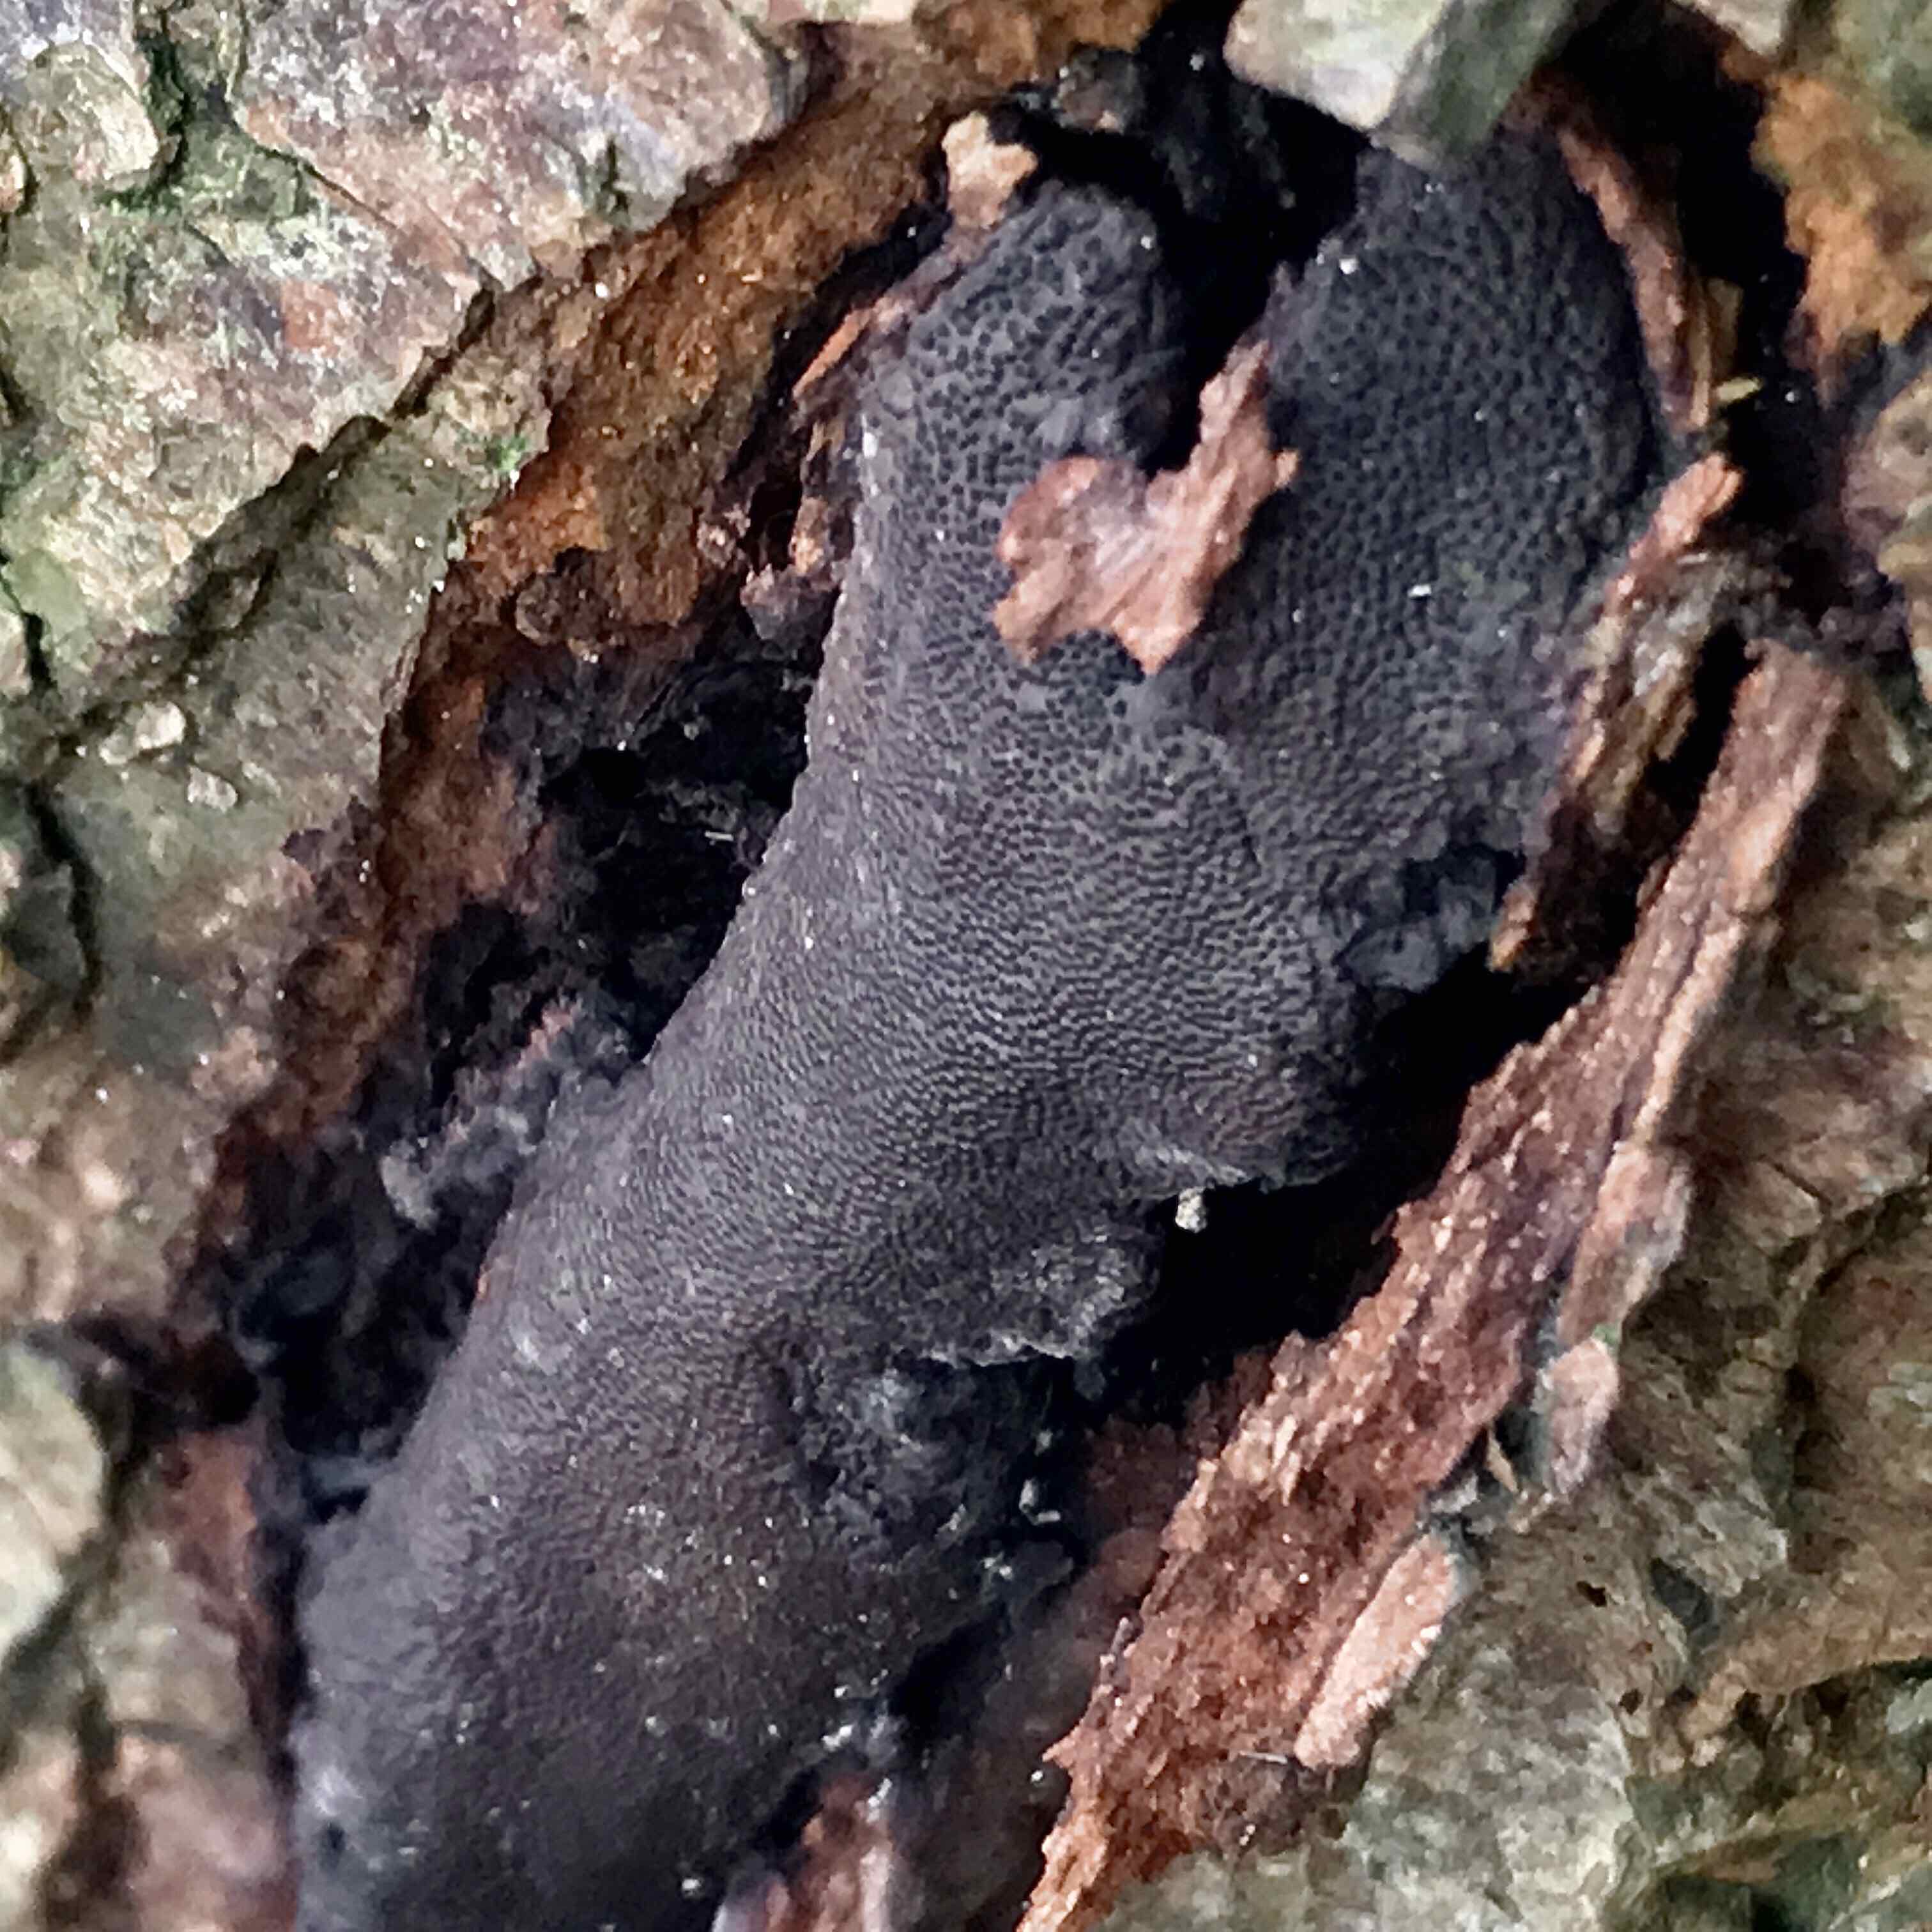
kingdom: Fungi
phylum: Ascomycota
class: Sordariomycetes
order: Boliniales
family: Boliniaceae
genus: Camarops
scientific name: Camarops polysperma
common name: elle-kulsnegl
